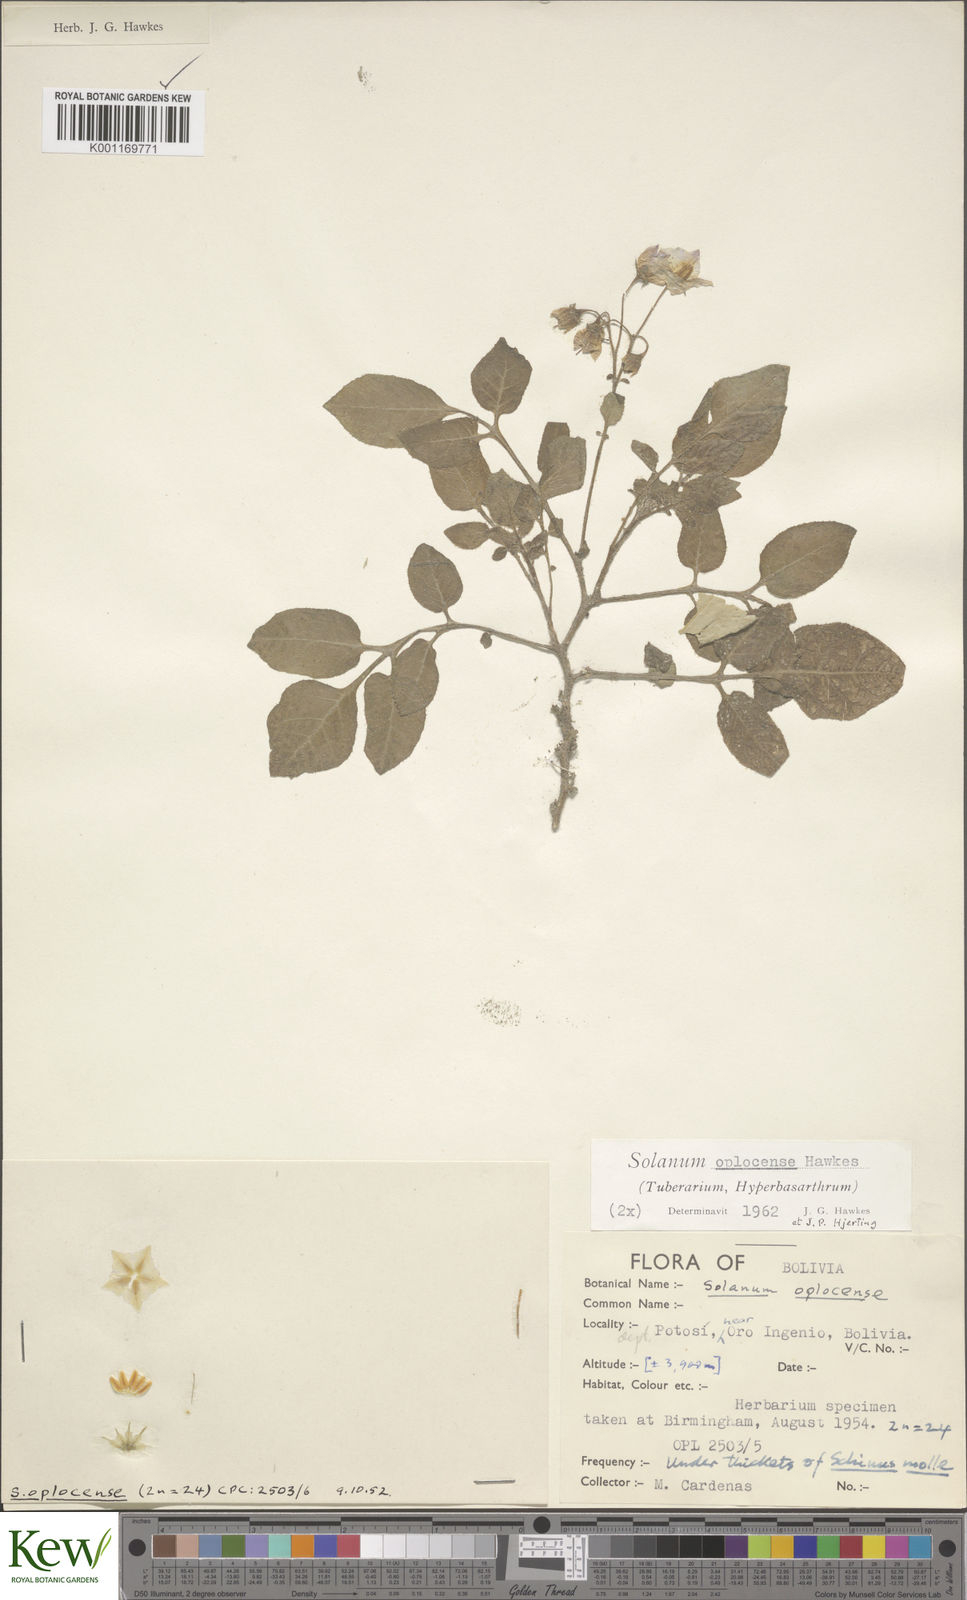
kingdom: Plantae
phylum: Tracheophyta
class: Magnoliopsida
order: Solanales
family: Solanaceae
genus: Solanum
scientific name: Solanum brevicaule
